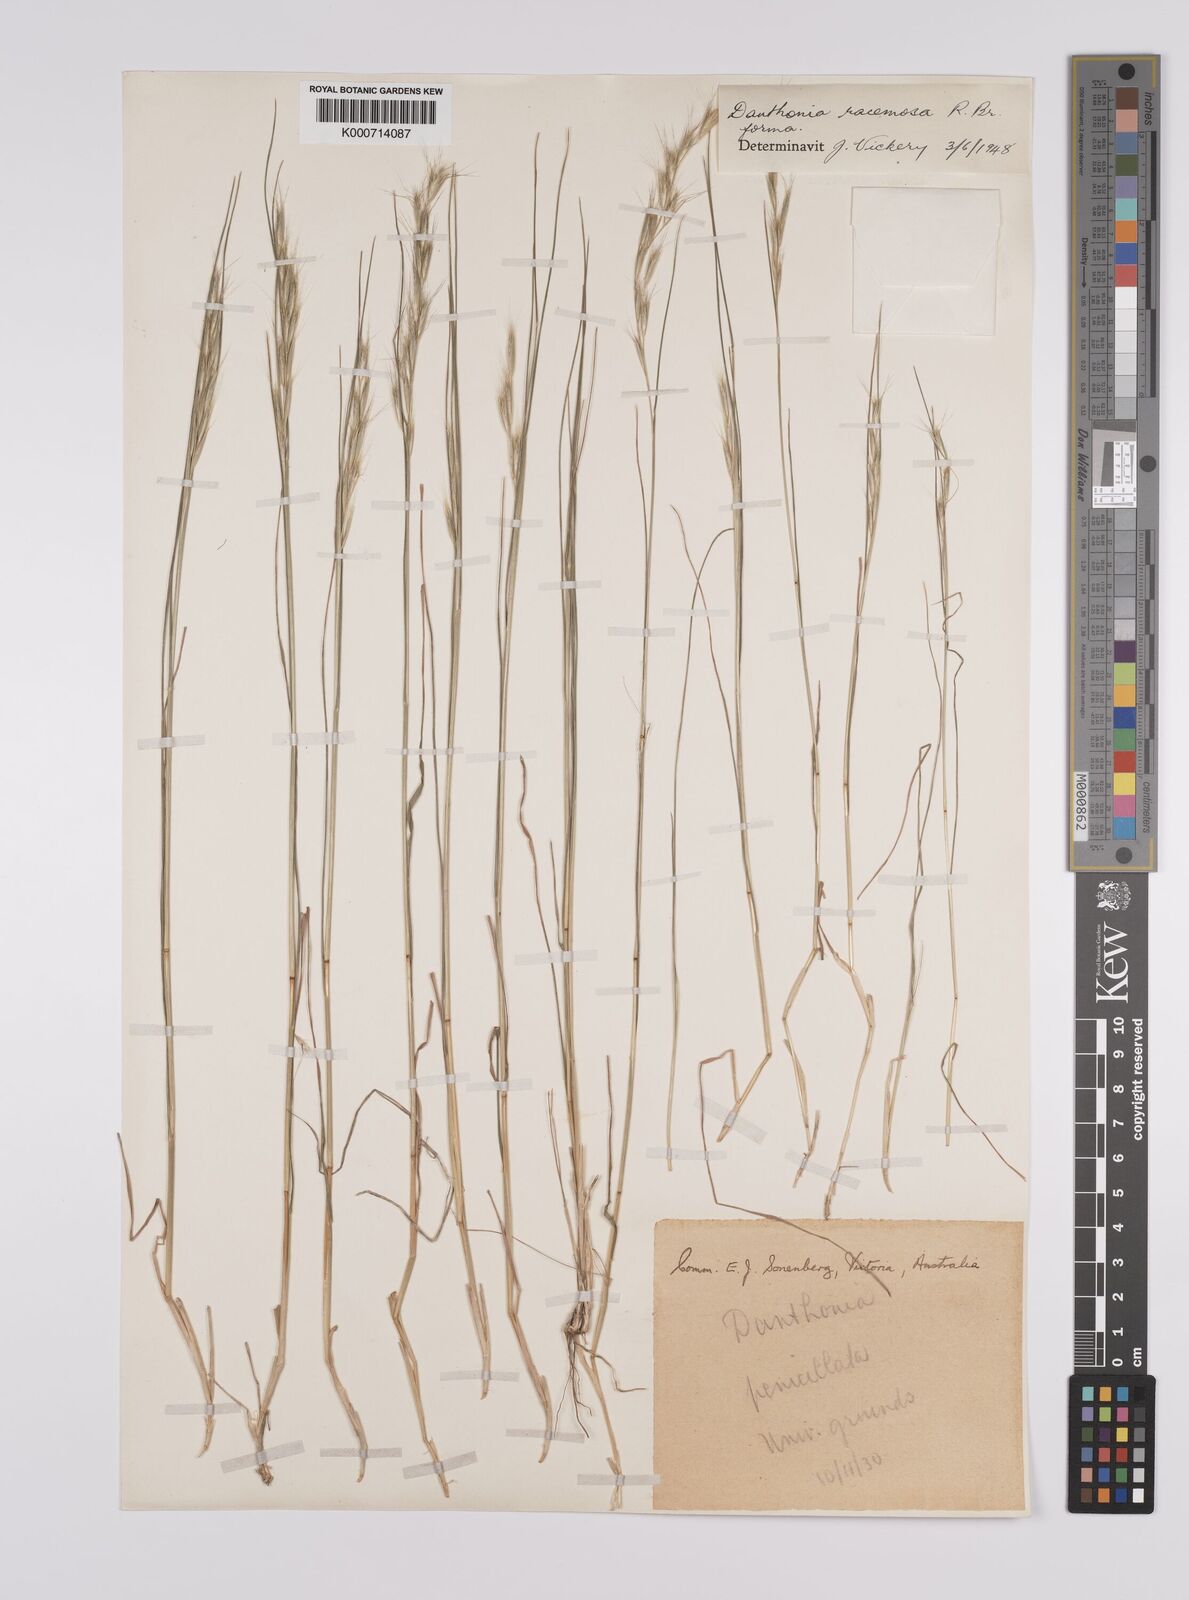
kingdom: Plantae
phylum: Tracheophyta
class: Liliopsida
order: Poales
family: Poaceae
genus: Rytidosperma
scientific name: Rytidosperma racemosum
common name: Wallaby-grass
